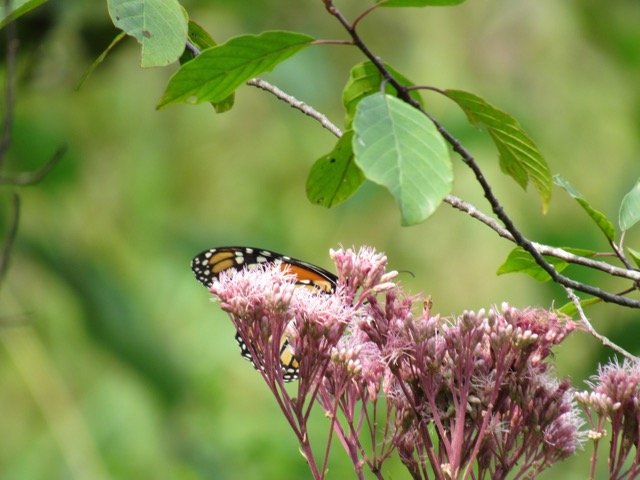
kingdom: Animalia
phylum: Arthropoda
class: Insecta
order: Lepidoptera
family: Nymphalidae
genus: Danaus
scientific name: Danaus plexippus
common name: Monarch
